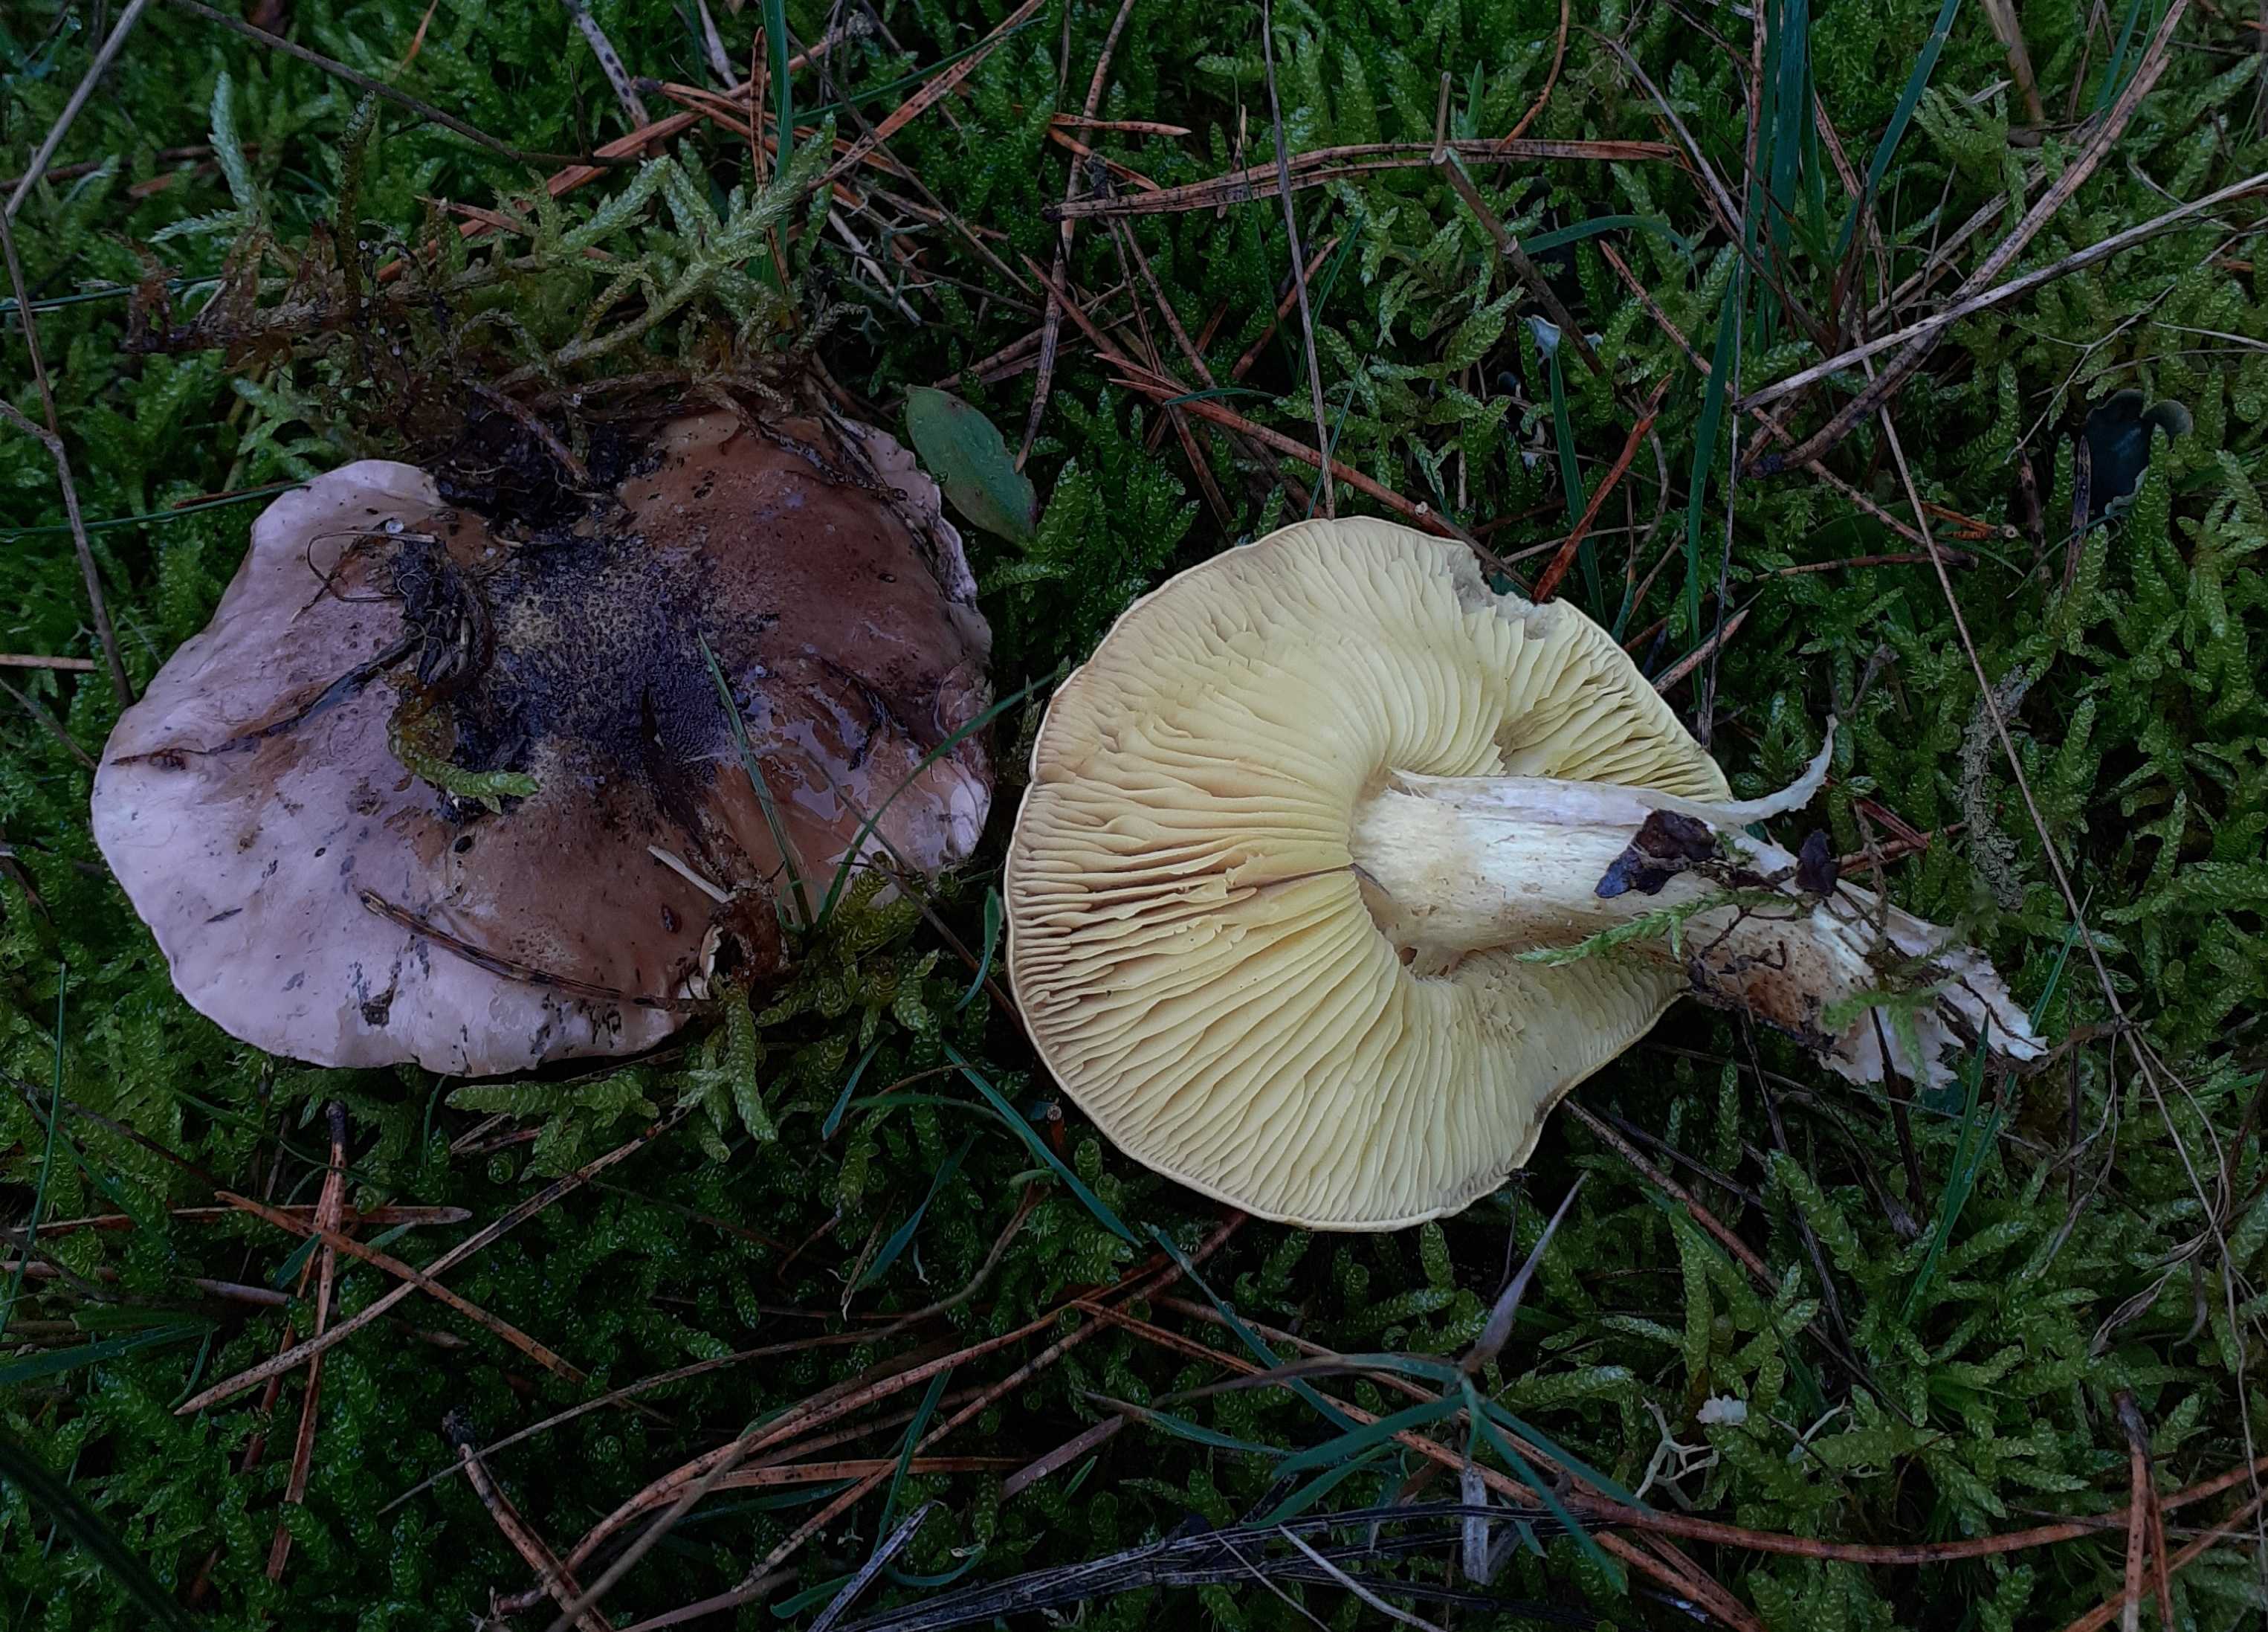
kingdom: Fungi
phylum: Basidiomycota
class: Agaricomycetes
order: Agaricales
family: Tricholomataceae
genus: Tricholoma
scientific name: Tricholoma equestre
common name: ægte ridderhat
